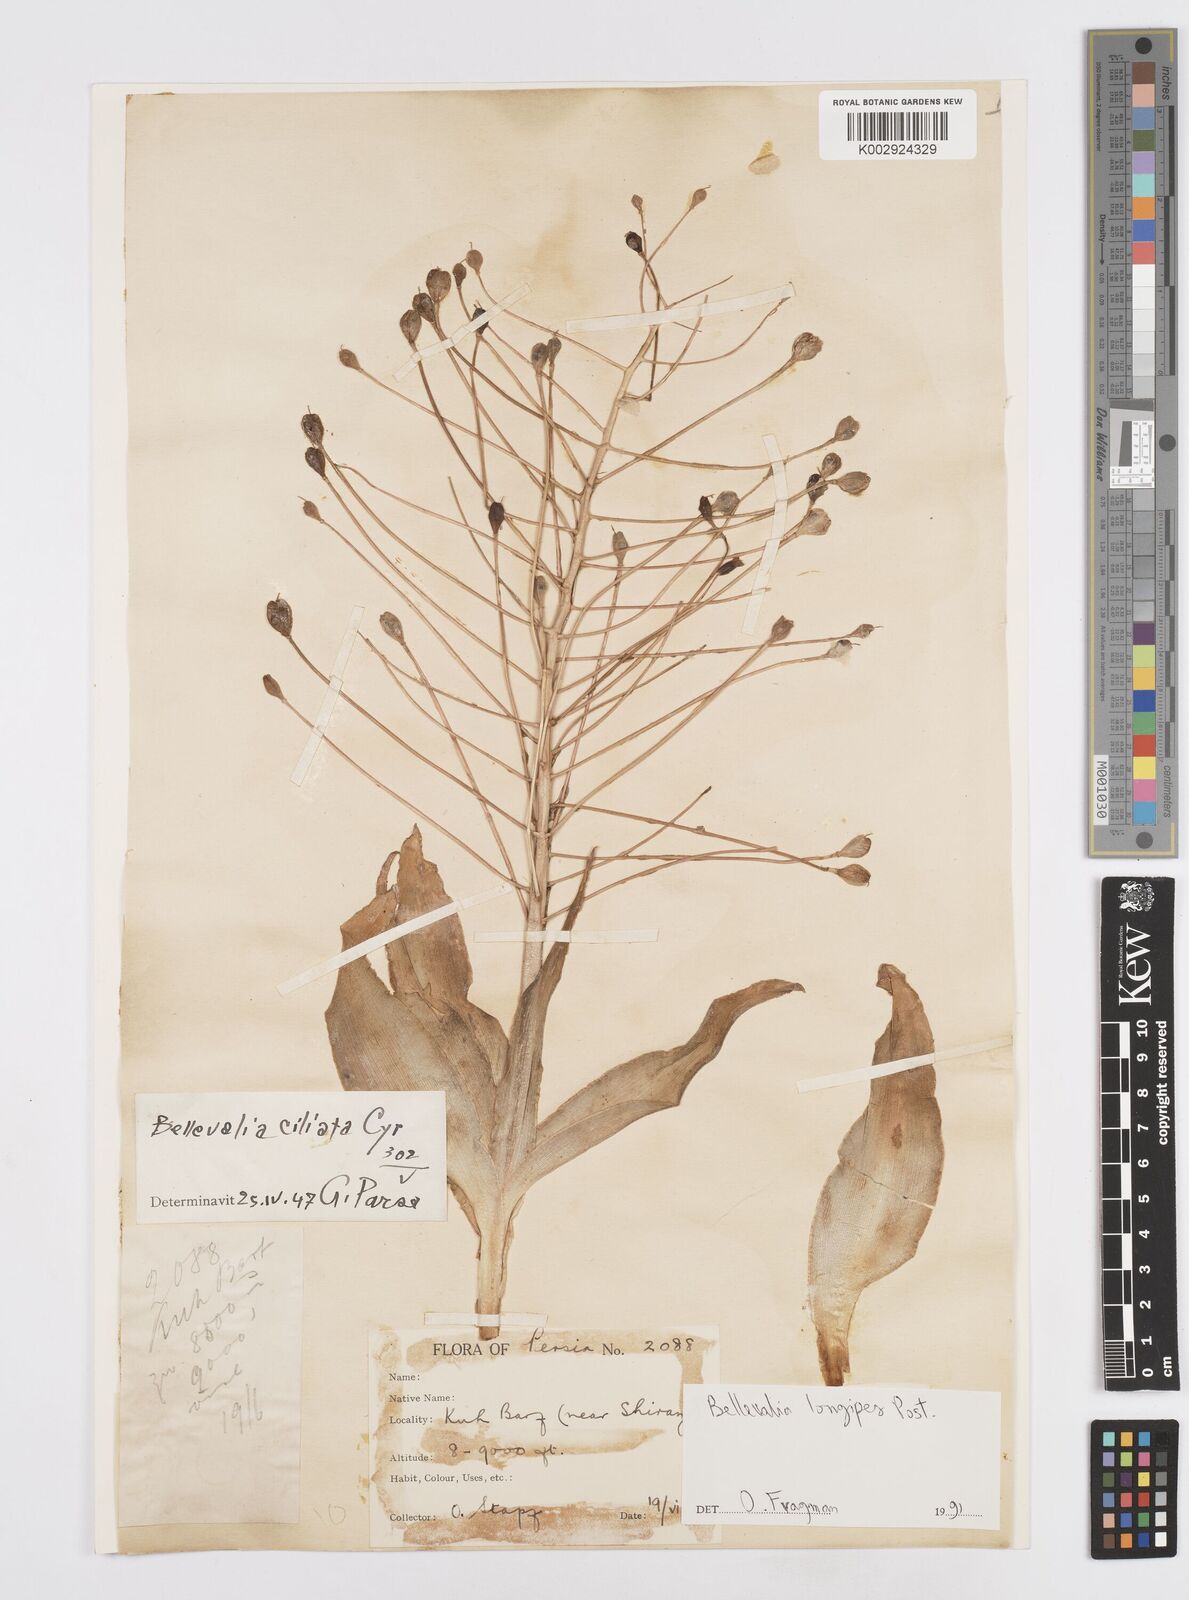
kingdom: Plantae
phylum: Tracheophyta
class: Liliopsida
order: Asparagales
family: Asparagaceae
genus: Bellevalia
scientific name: Bellevalia longipes
